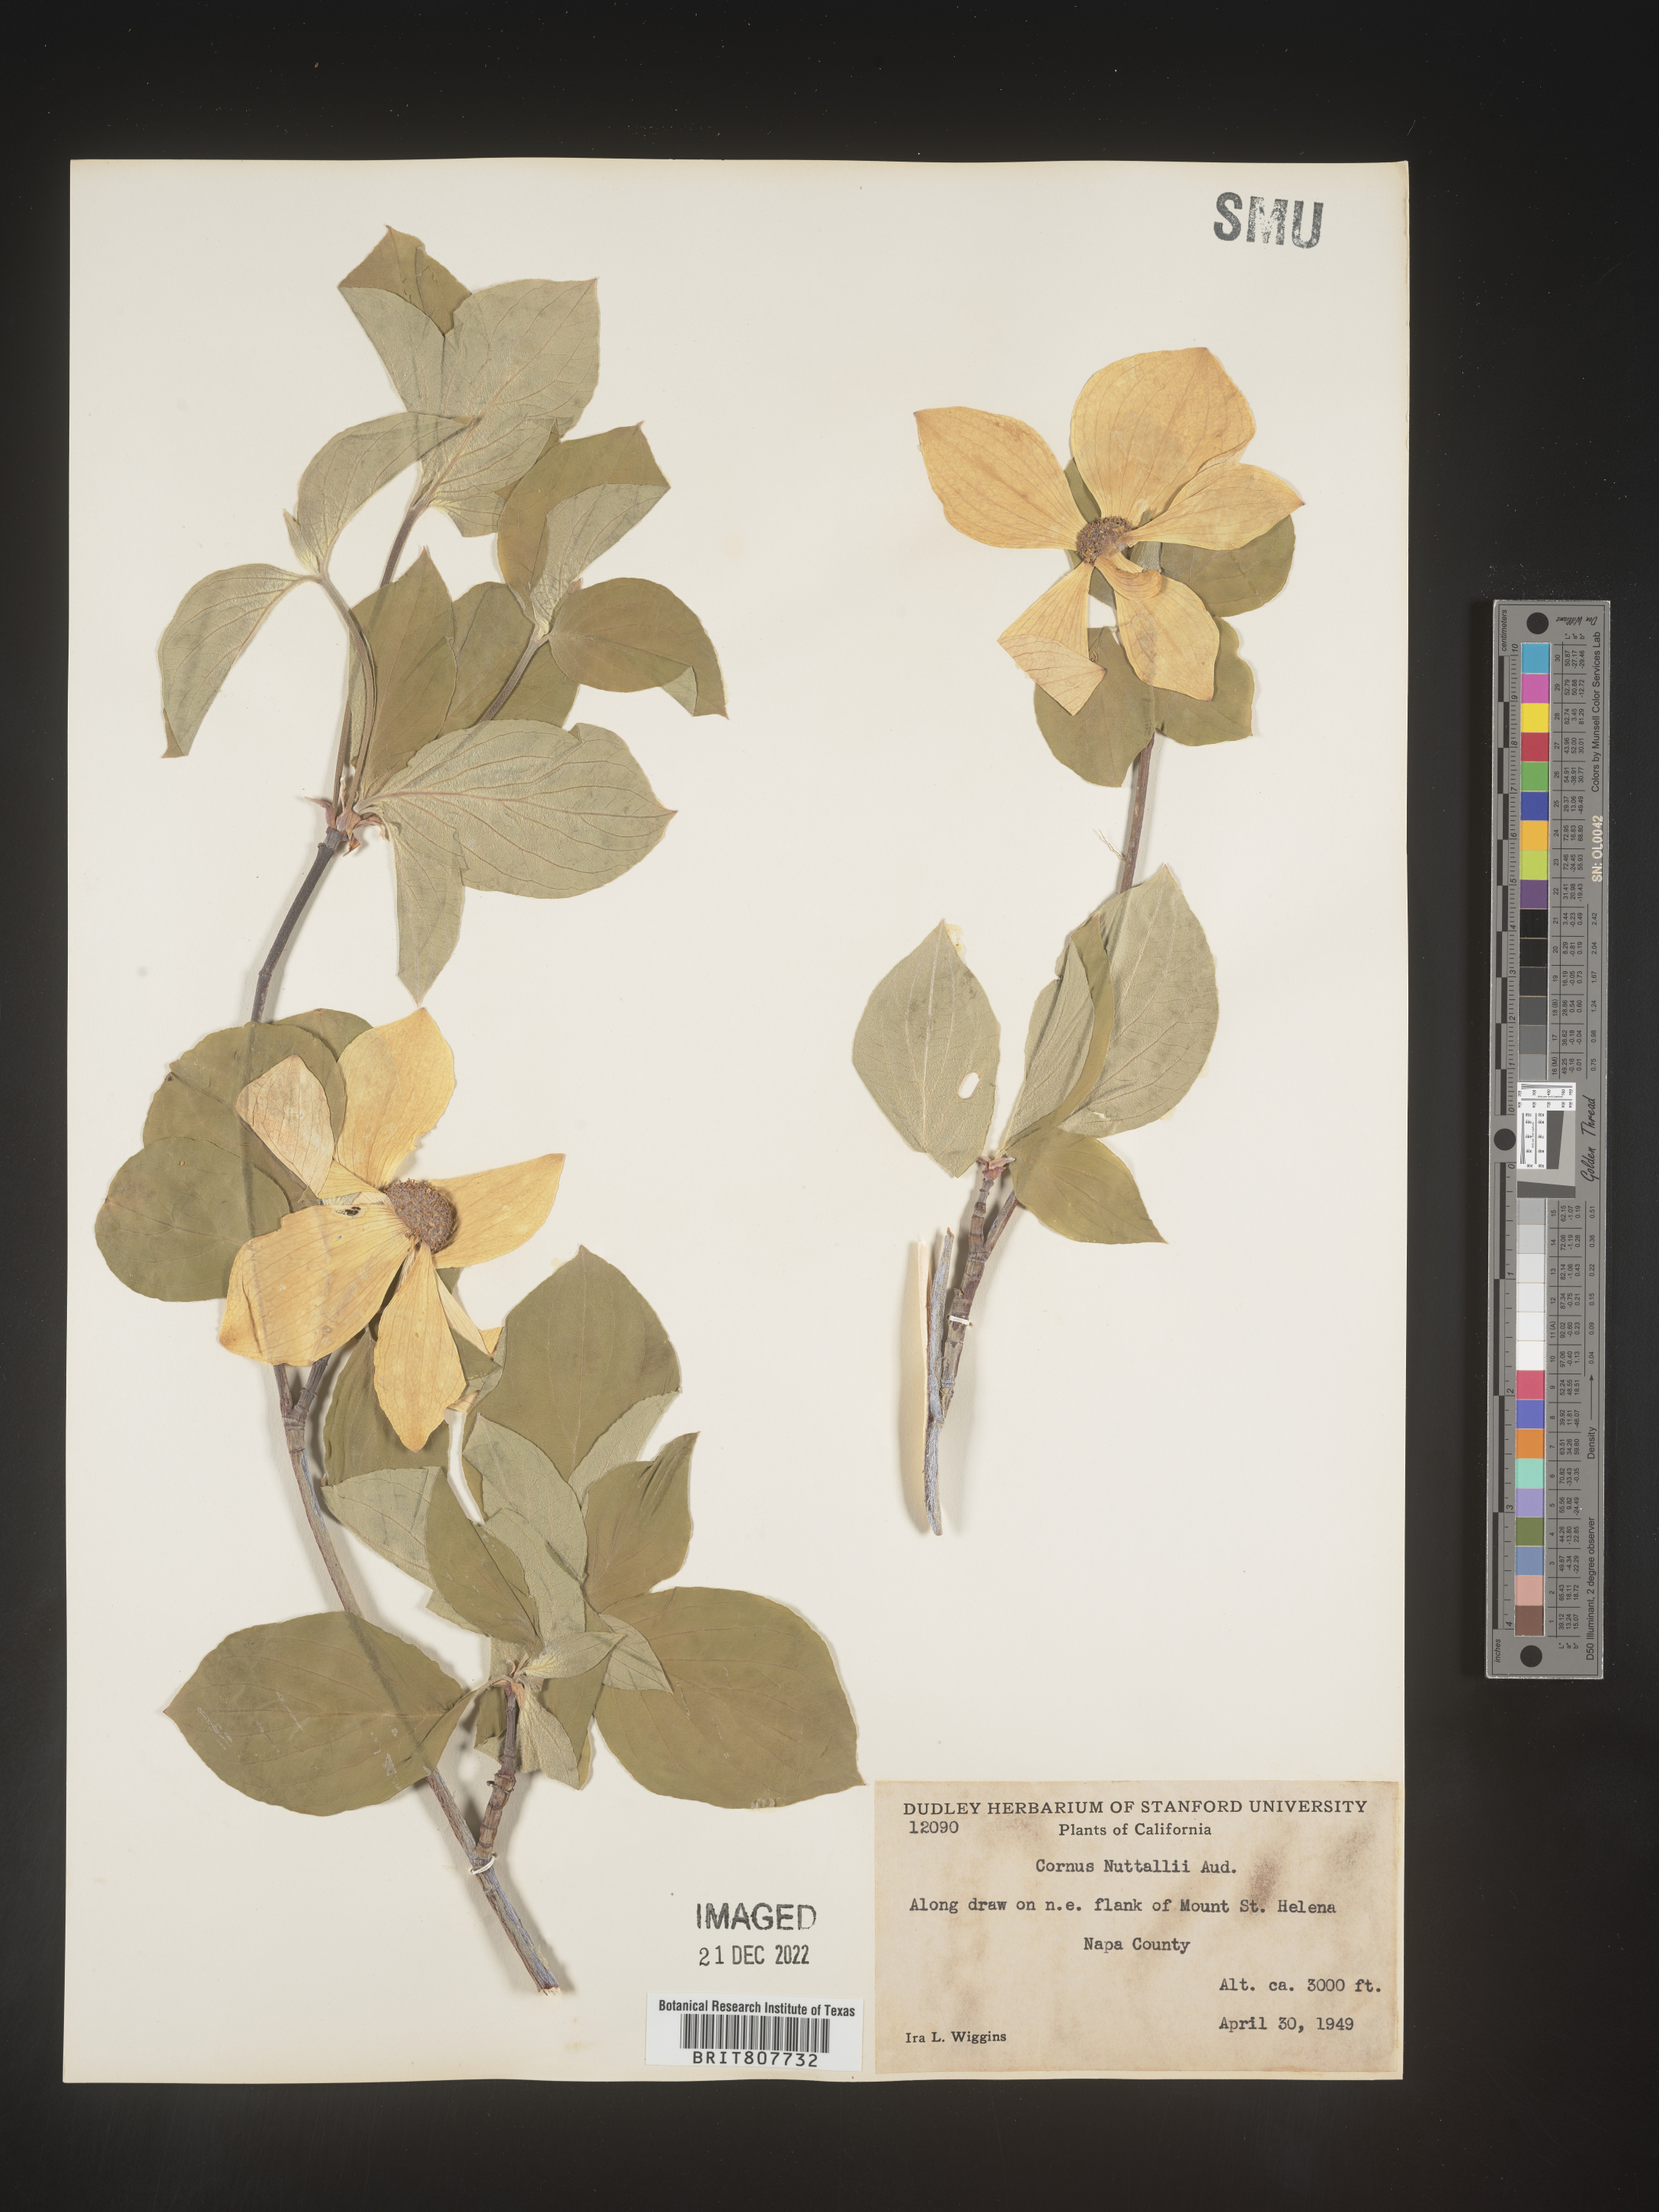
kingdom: Plantae
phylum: Tracheophyta
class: Magnoliopsida
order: Cornales
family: Cornaceae
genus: Cornus
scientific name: Cornus nuttallii
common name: Pacific dogwood
